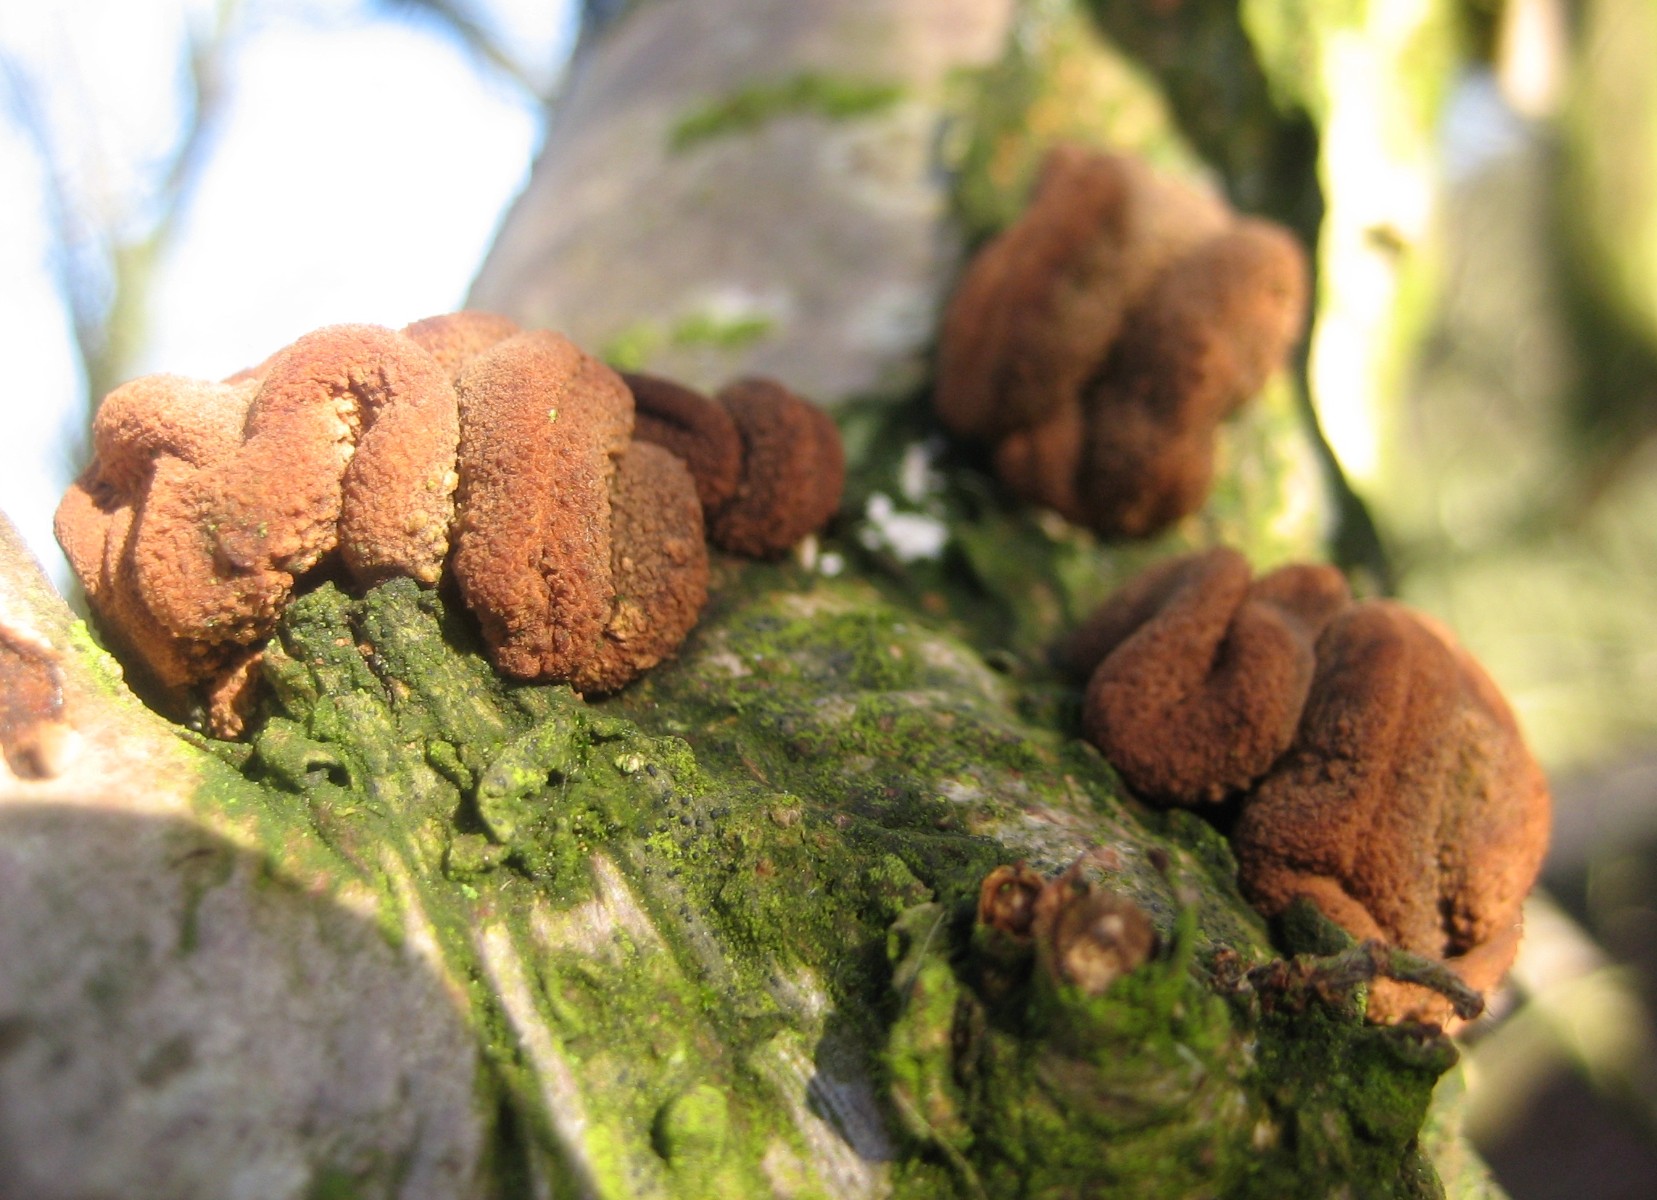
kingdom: Fungi
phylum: Ascomycota
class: Leotiomycetes
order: Helotiales
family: Cenangiaceae
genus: Encoelia
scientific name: Encoelia furfuracea
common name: hassel-læderskive
